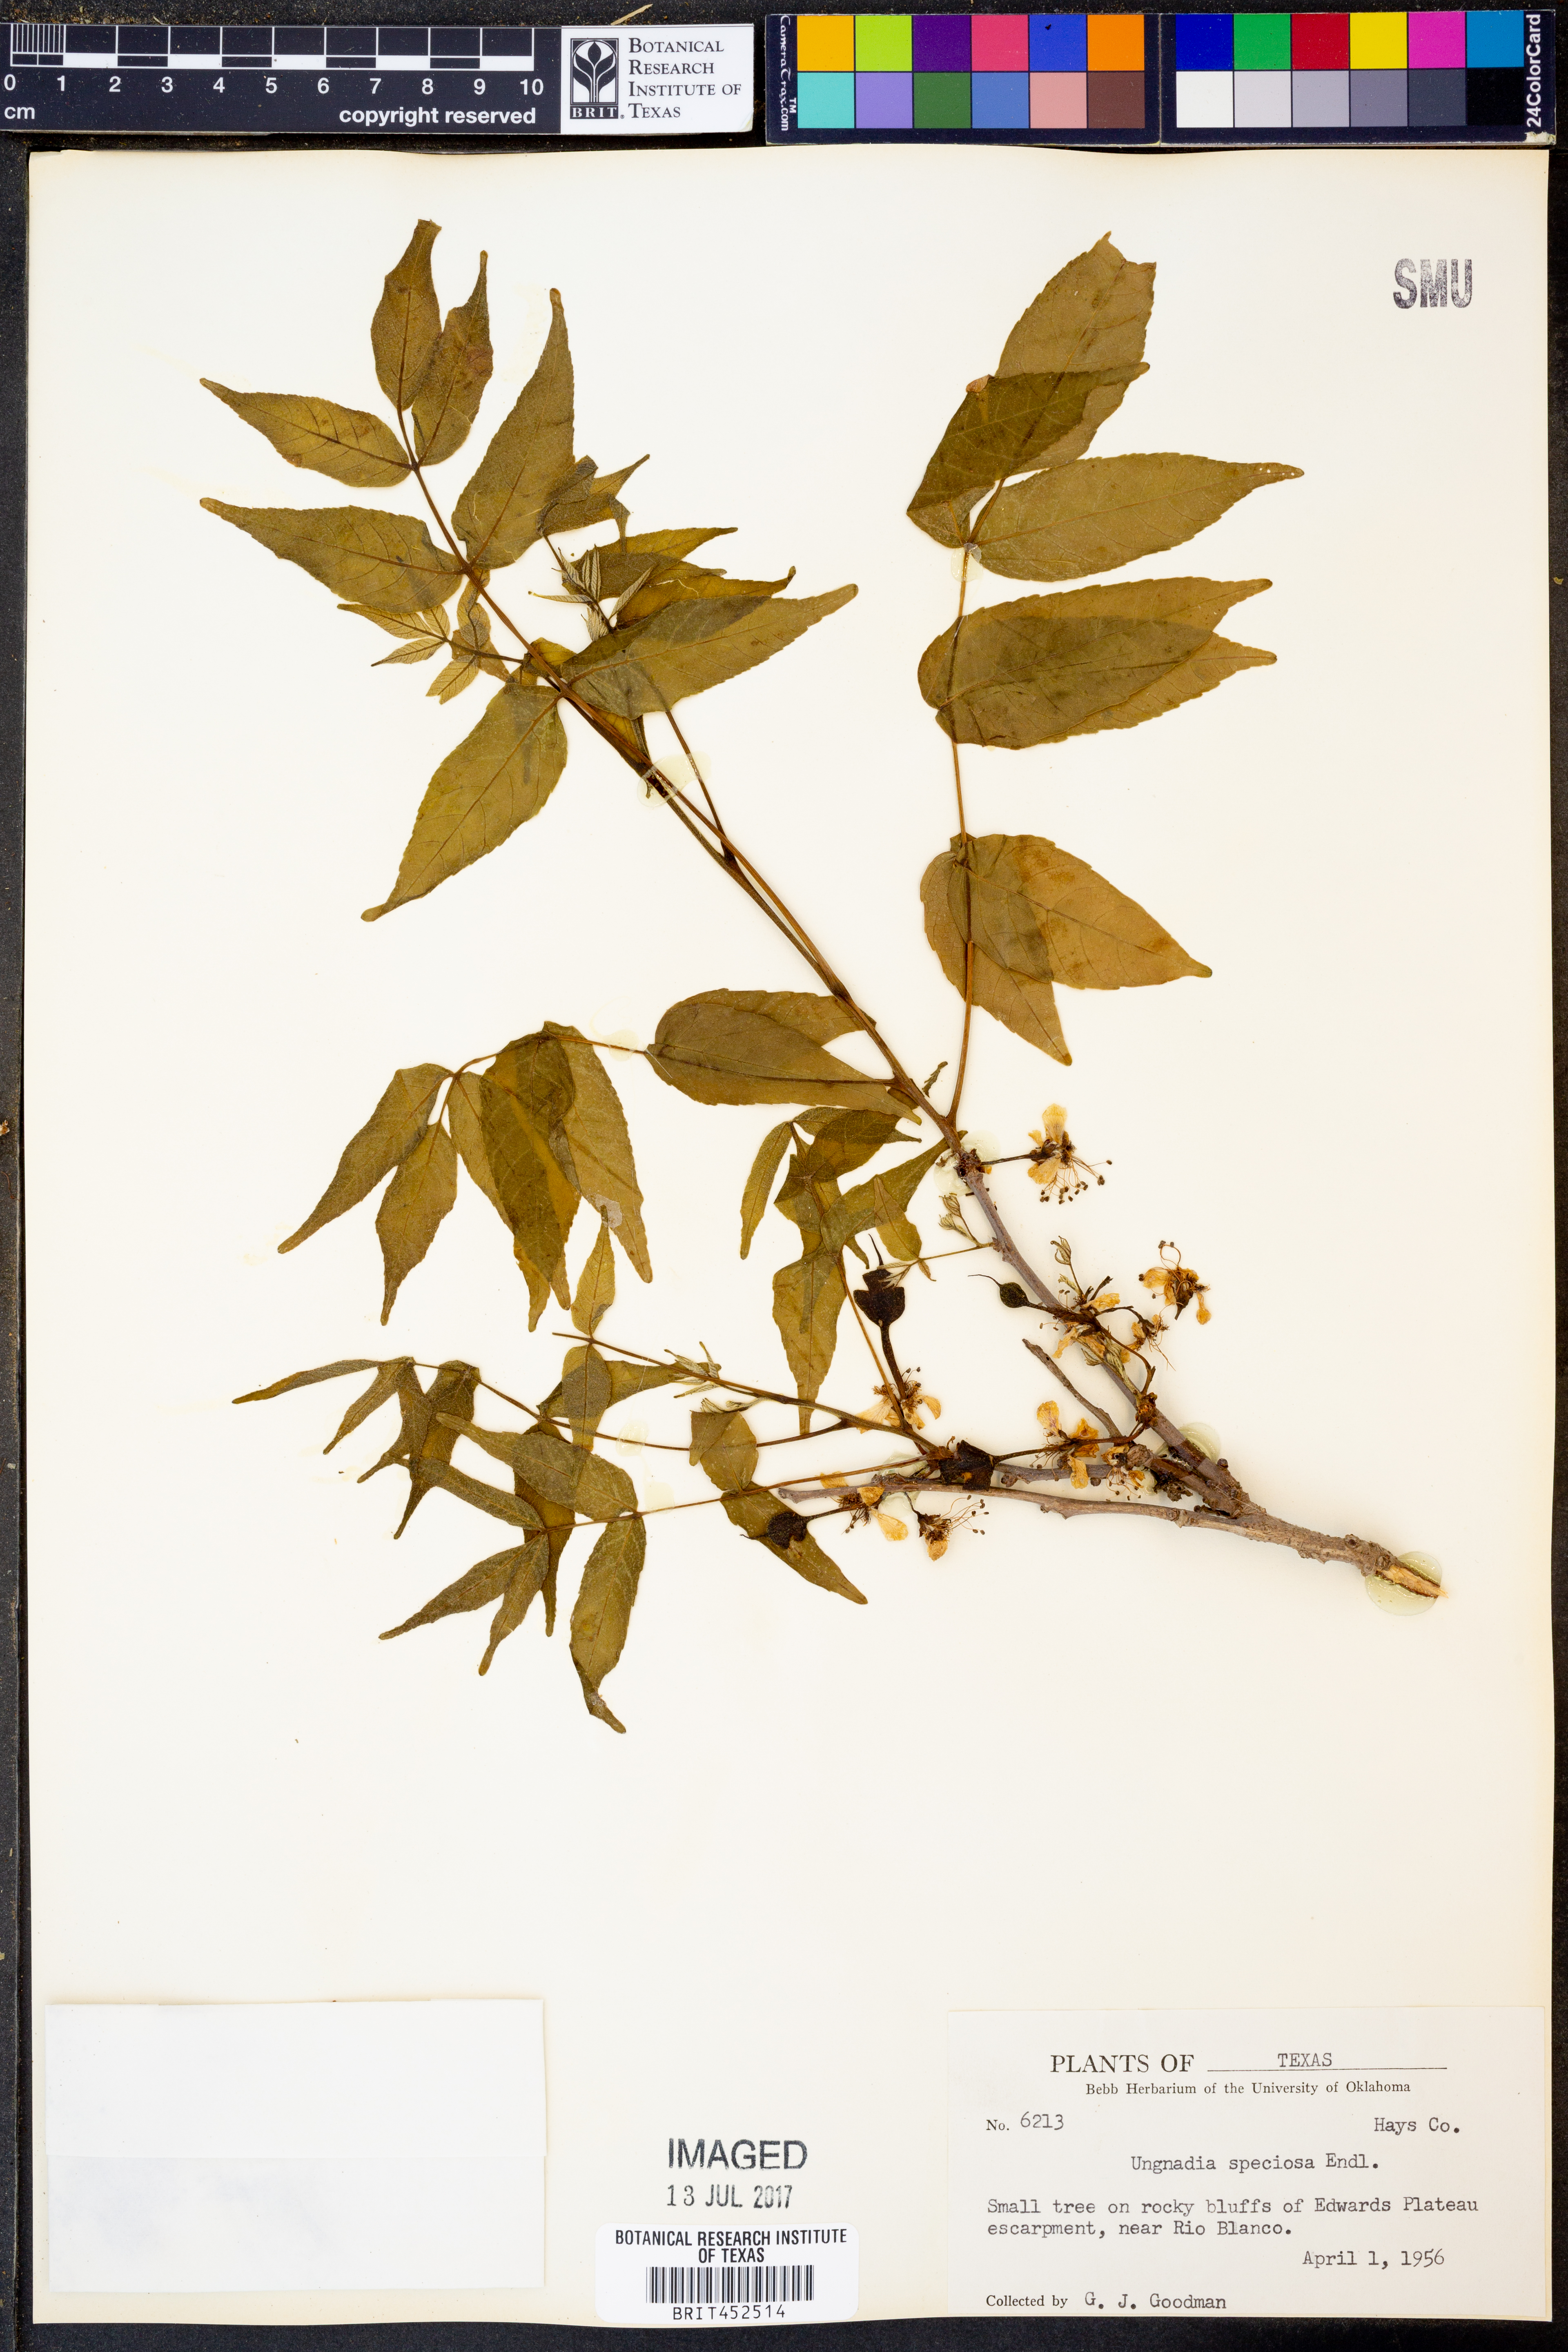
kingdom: Plantae
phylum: Tracheophyta
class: Magnoliopsida
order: Sapindales
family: Sapindaceae
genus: Ungnadia
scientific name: Ungnadia speciosa
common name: Texas-buckeye
